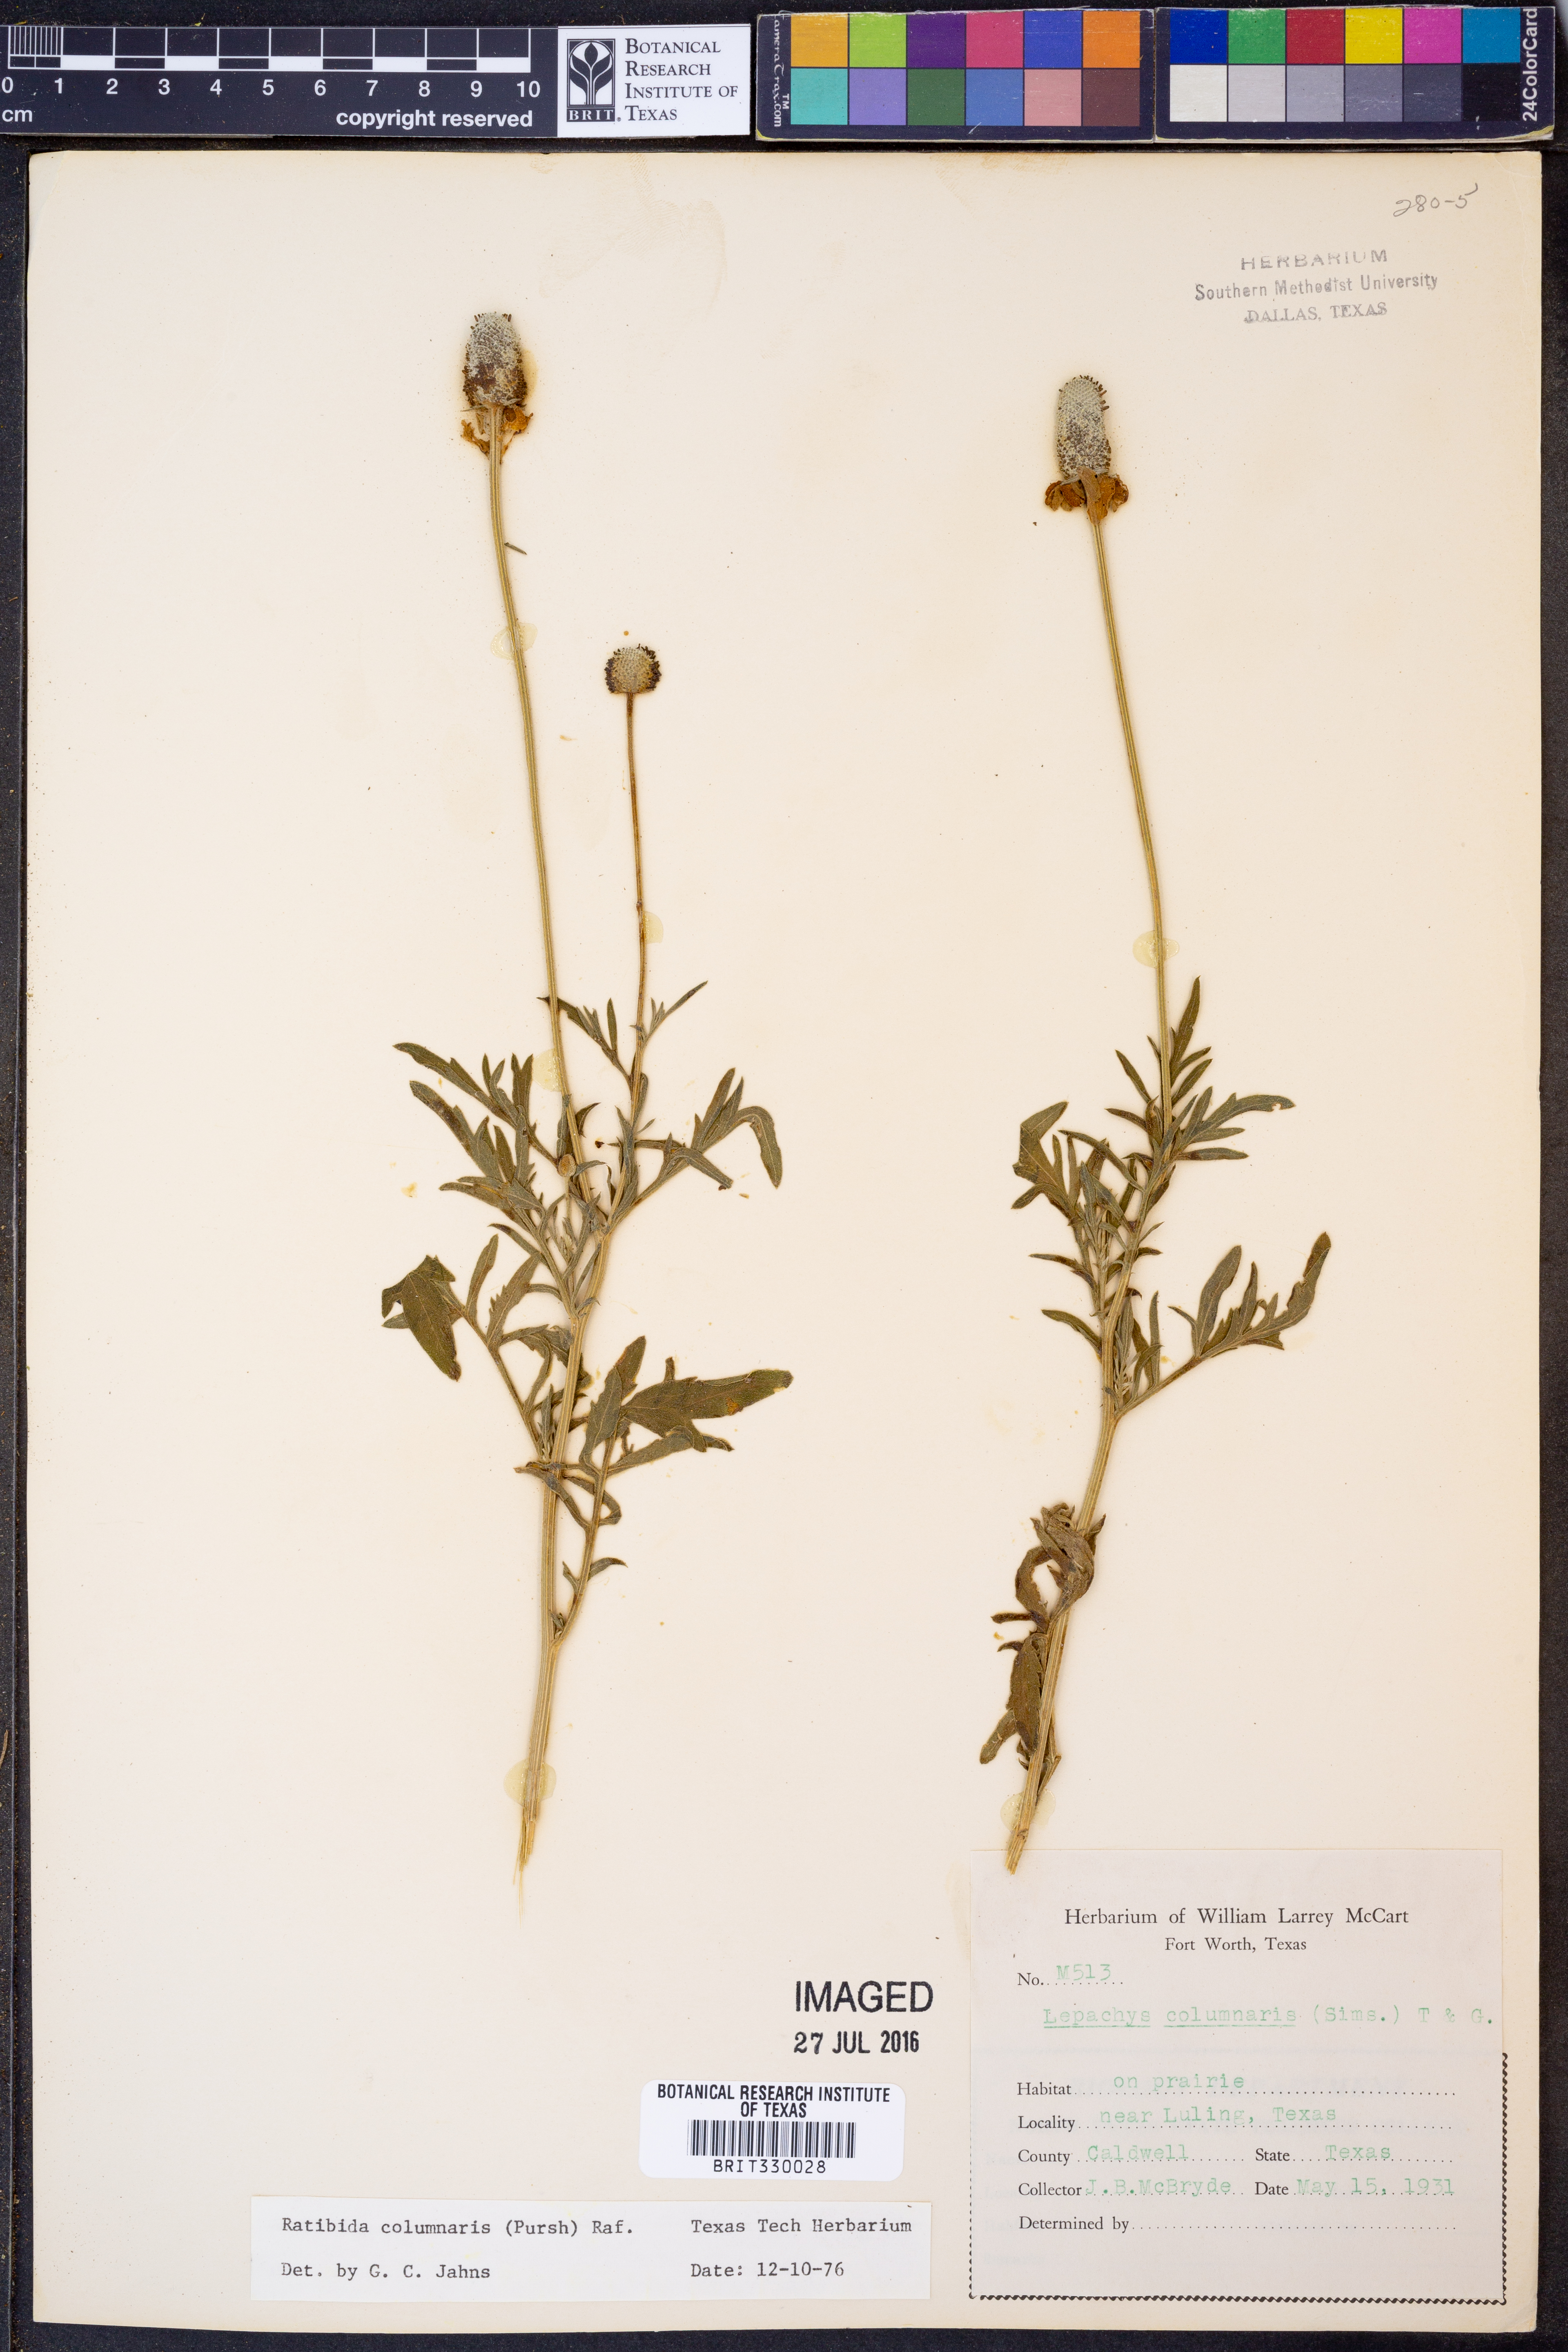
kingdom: Plantae
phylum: Tracheophyta
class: Magnoliopsida
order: Asterales
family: Asteraceae
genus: Ratibida
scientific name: Ratibida columnifera
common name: Prairie coneflower
